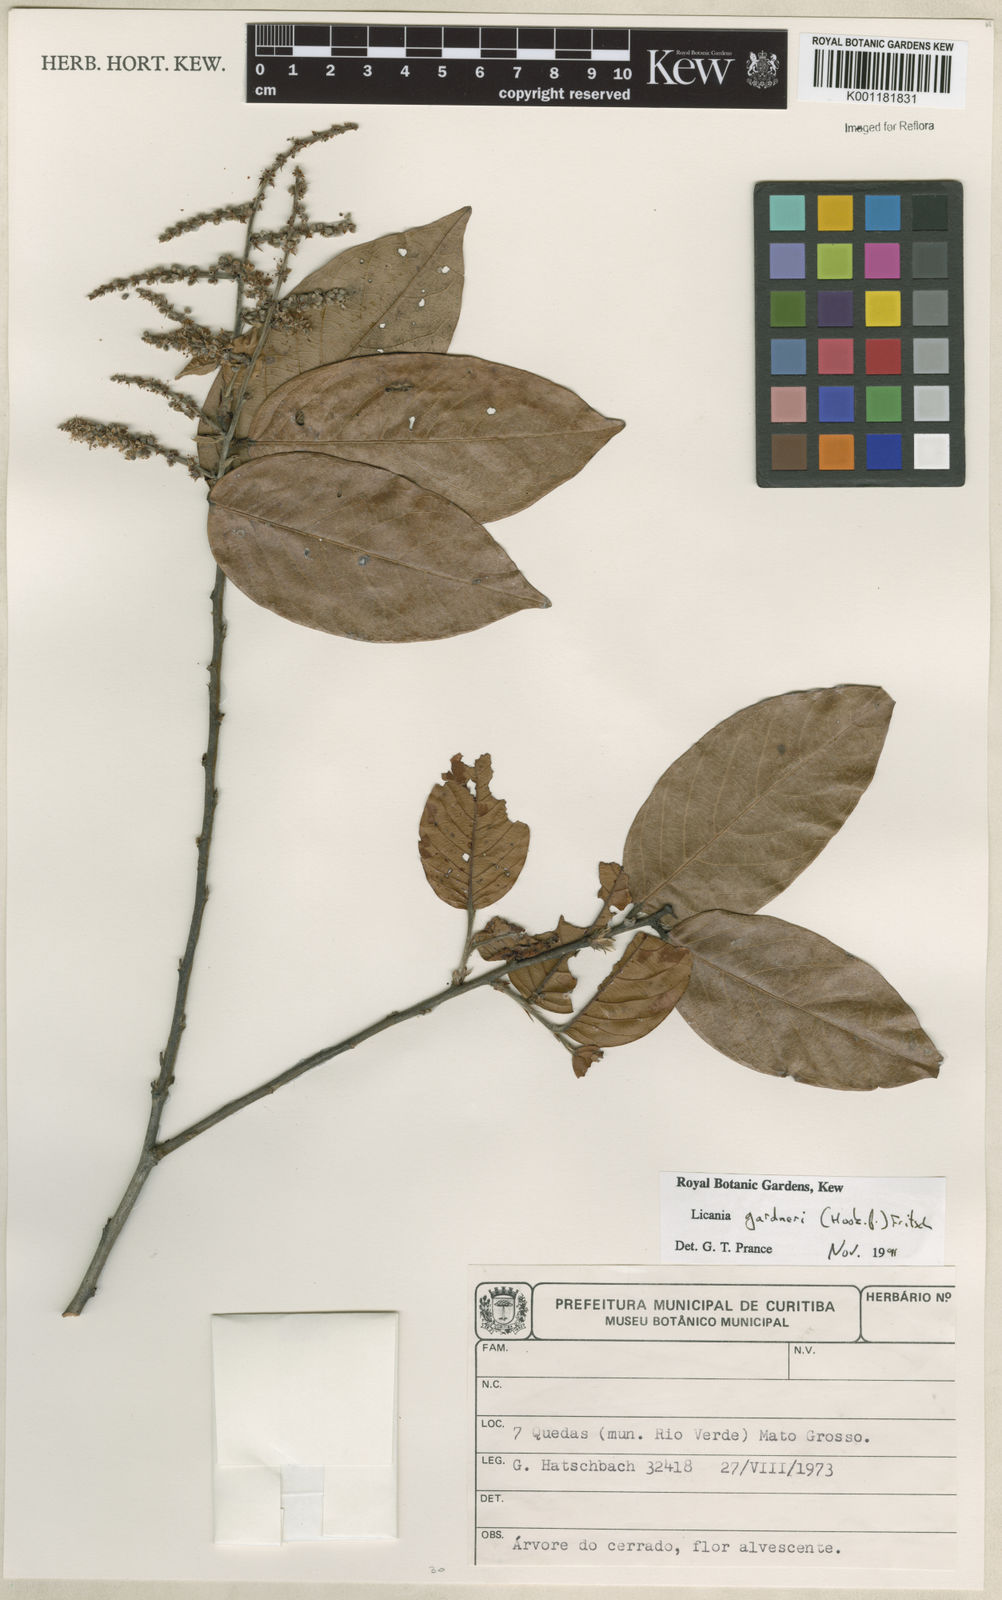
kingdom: Plantae
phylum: Tracheophyta
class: Magnoliopsida
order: Malpighiales
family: Chrysobalanaceae
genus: Leptobalanus
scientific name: Leptobalanus gardneri
